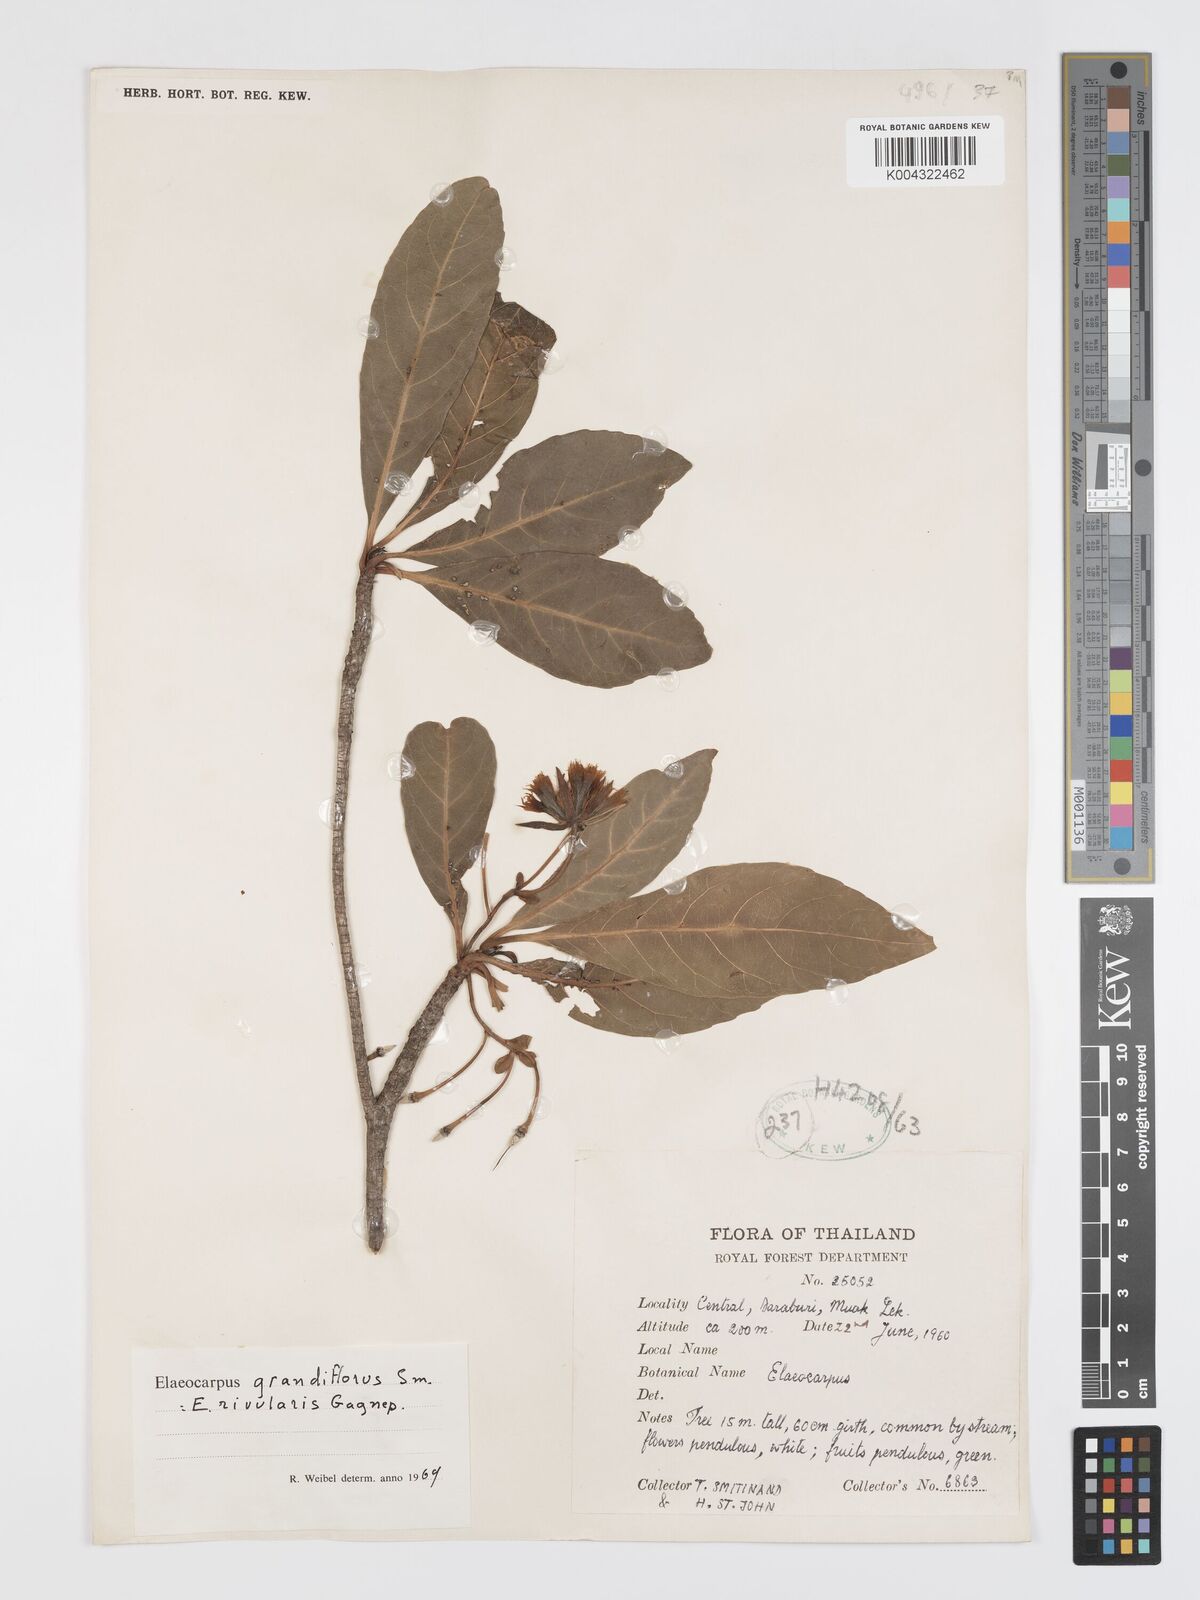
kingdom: Plantae
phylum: Tracheophyta
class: Magnoliopsida
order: Oxalidales
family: Elaeocarpaceae
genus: Elaeocarpus
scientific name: Elaeocarpus grandiflorus
